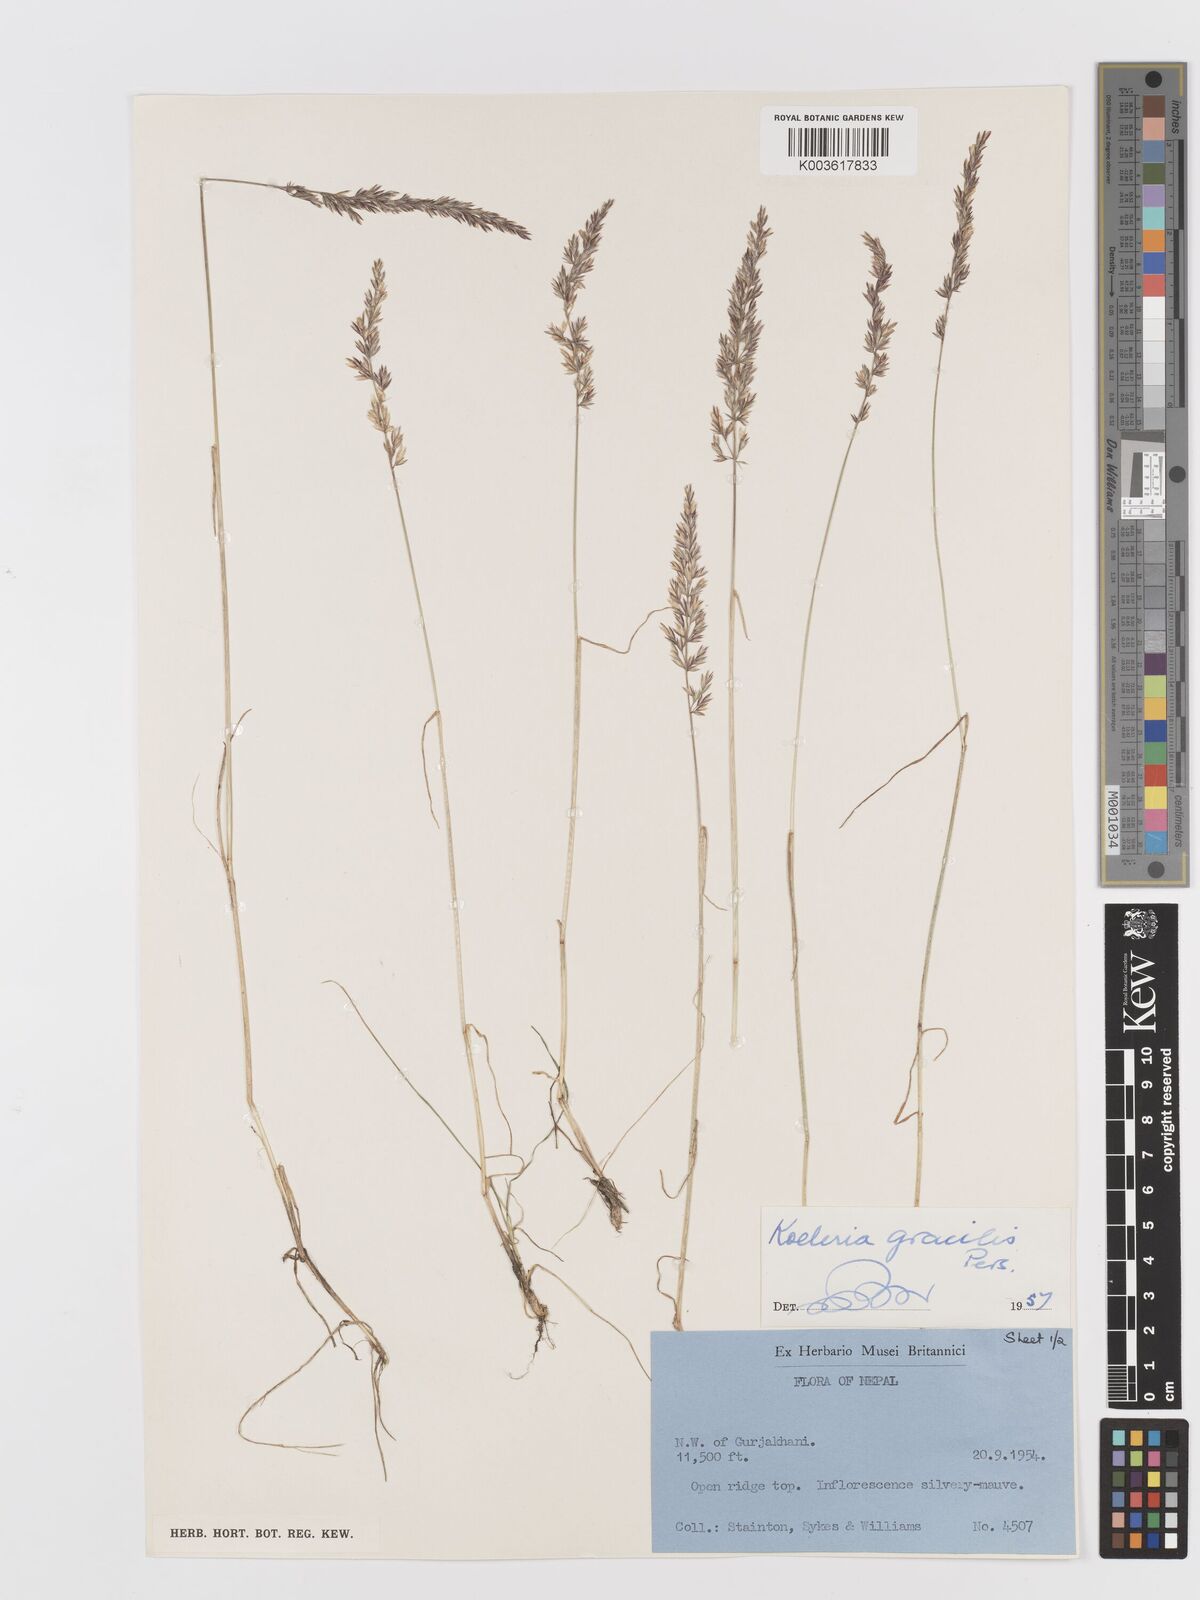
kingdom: Plantae
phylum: Tracheophyta
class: Liliopsida
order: Poales
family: Poaceae
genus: Koeleria
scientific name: Koeleria macrantha
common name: Crested hair-grass
